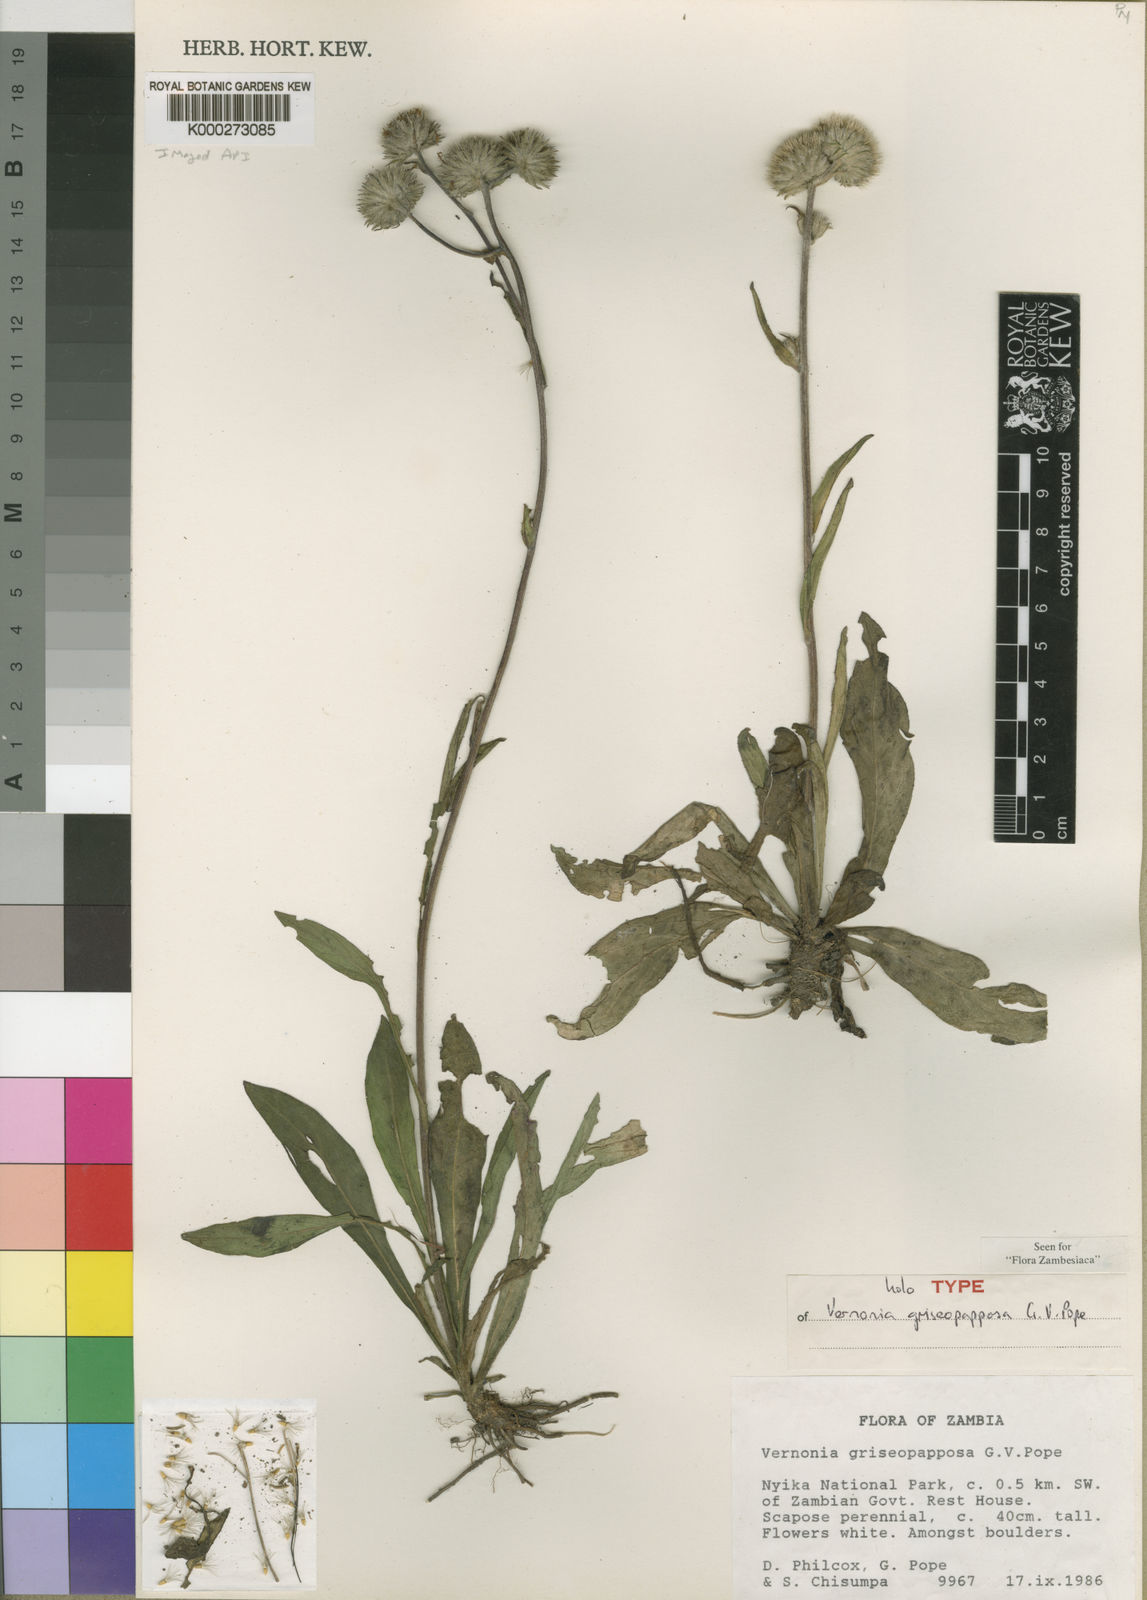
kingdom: Plantae
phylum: Tracheophyta
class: Magnoliopsida
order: Asterales
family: Asteraceae
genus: Vernonia
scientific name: Vernonia griseopapposa
